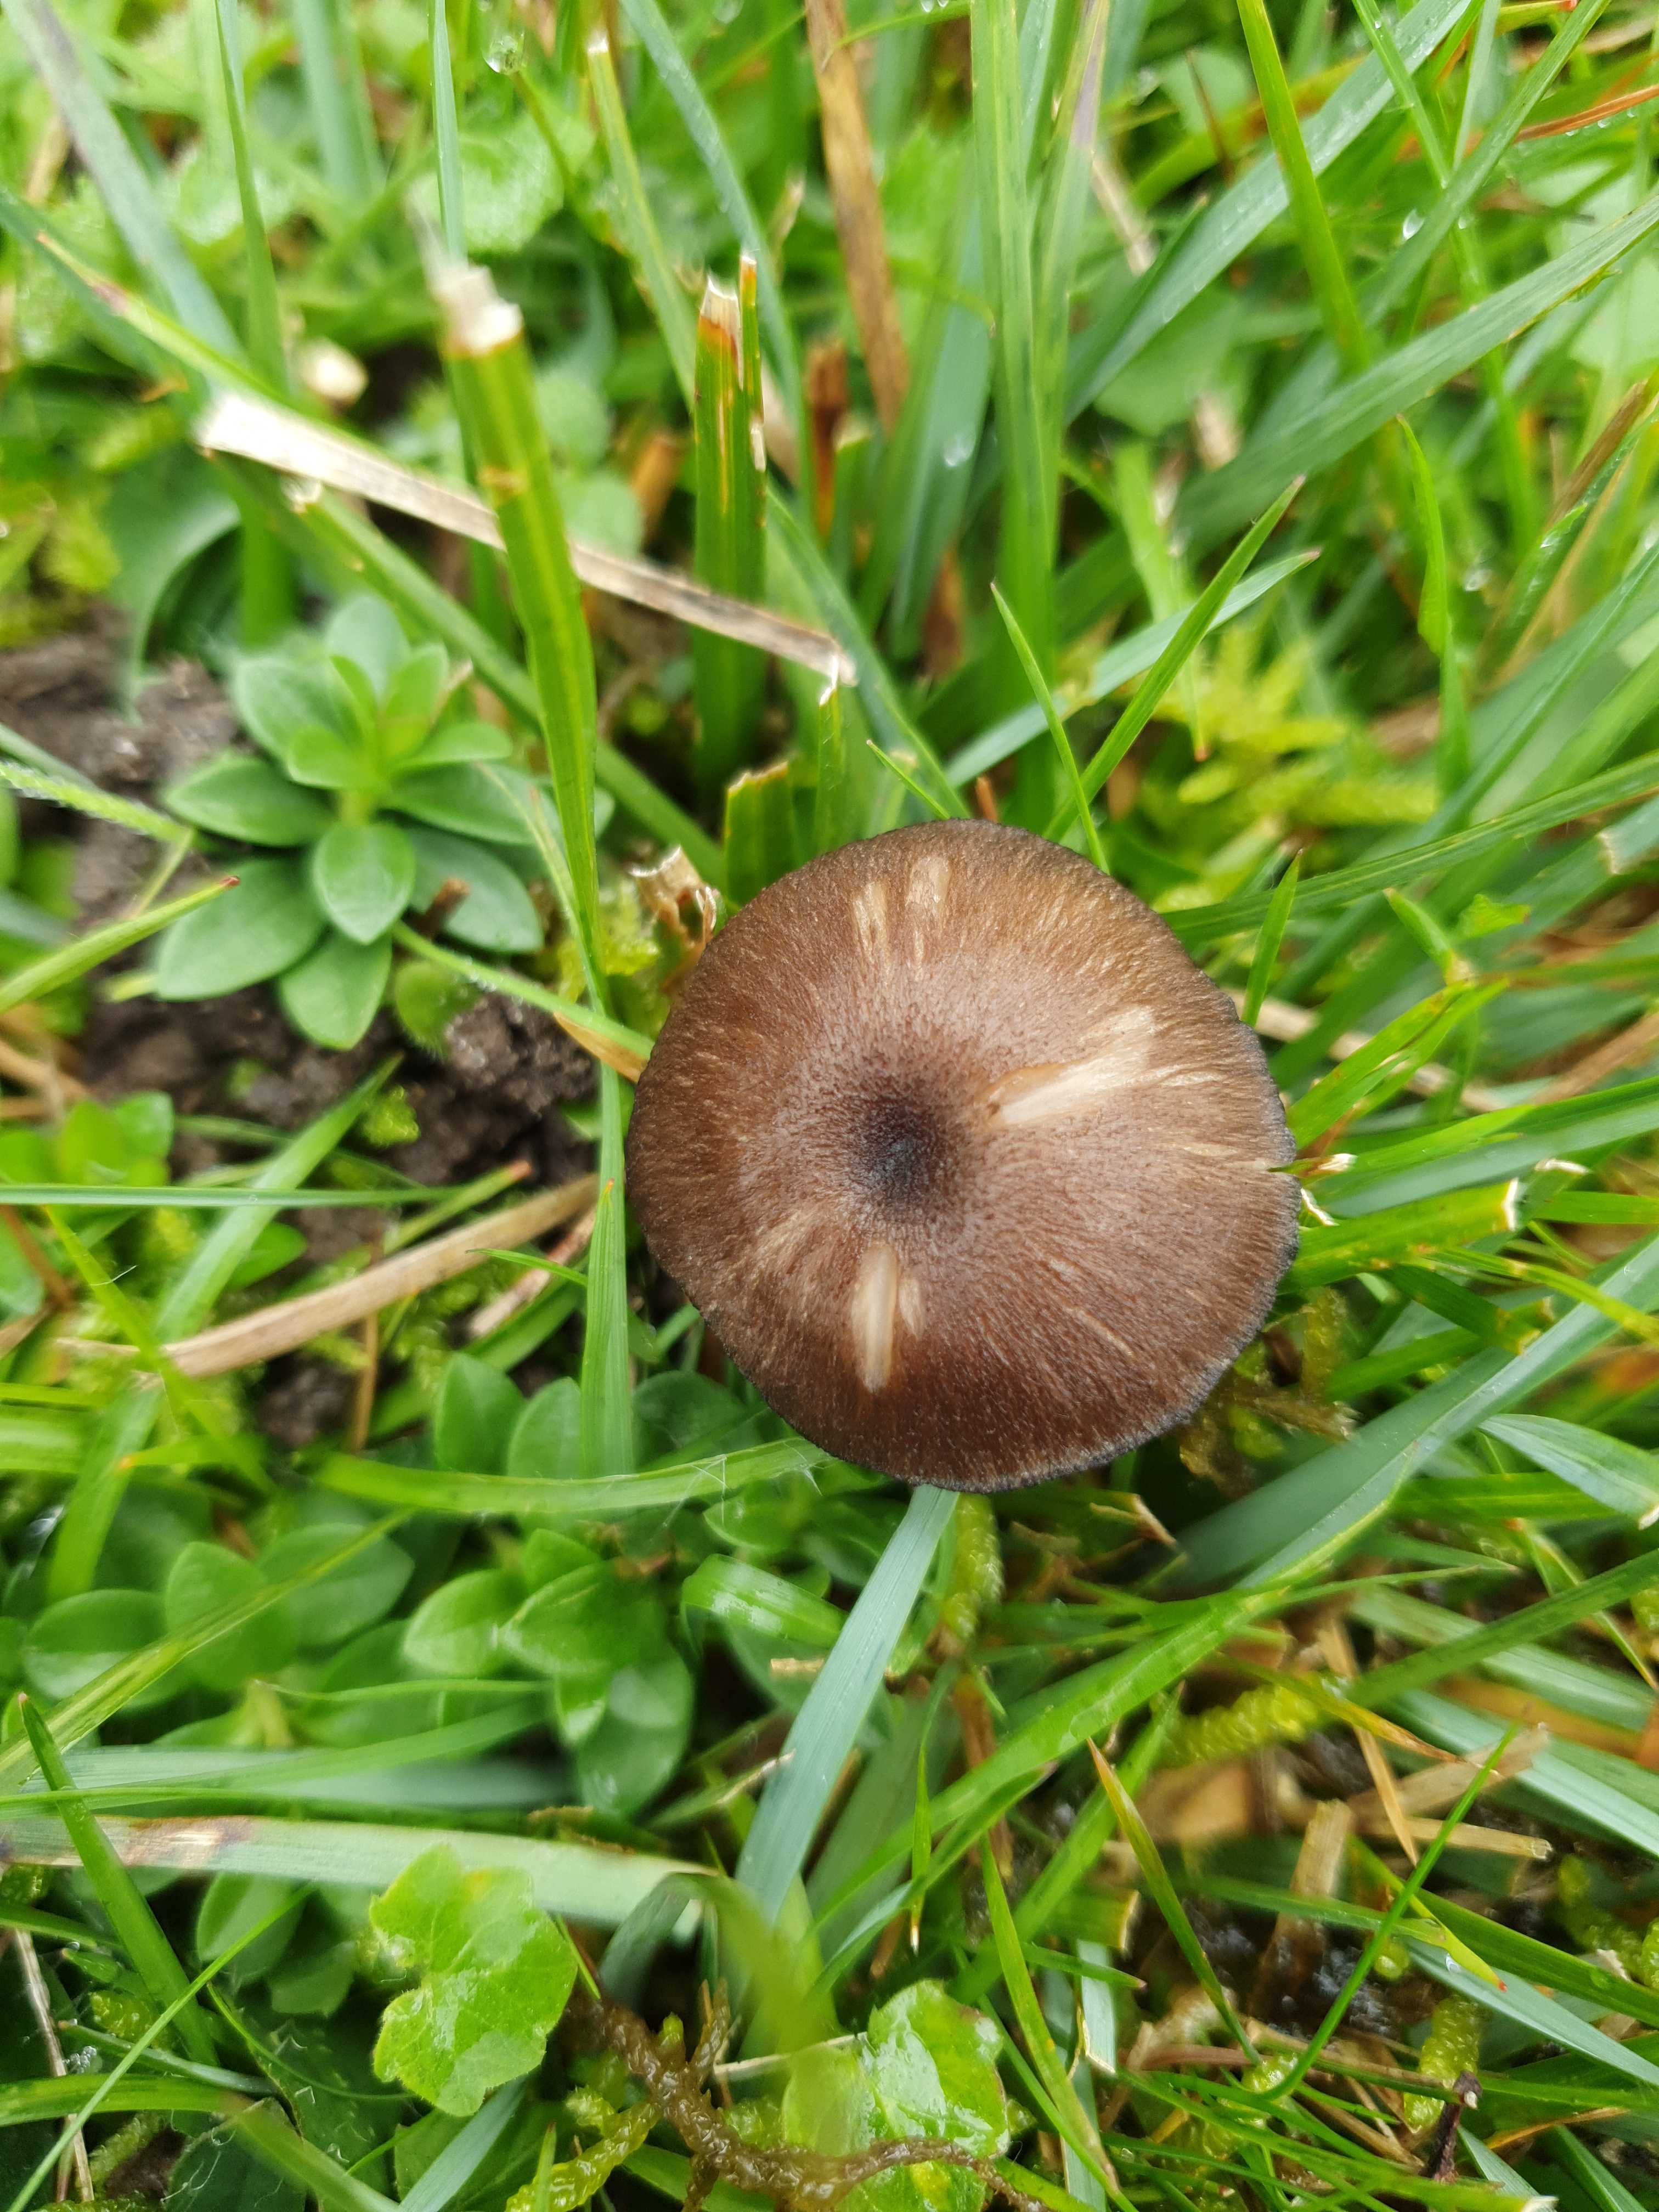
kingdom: Fungi
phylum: Basidiomycota
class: Agaricomycetes
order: Agaricales
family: Entolomataceae
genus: Entoloma
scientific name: Entoloma
